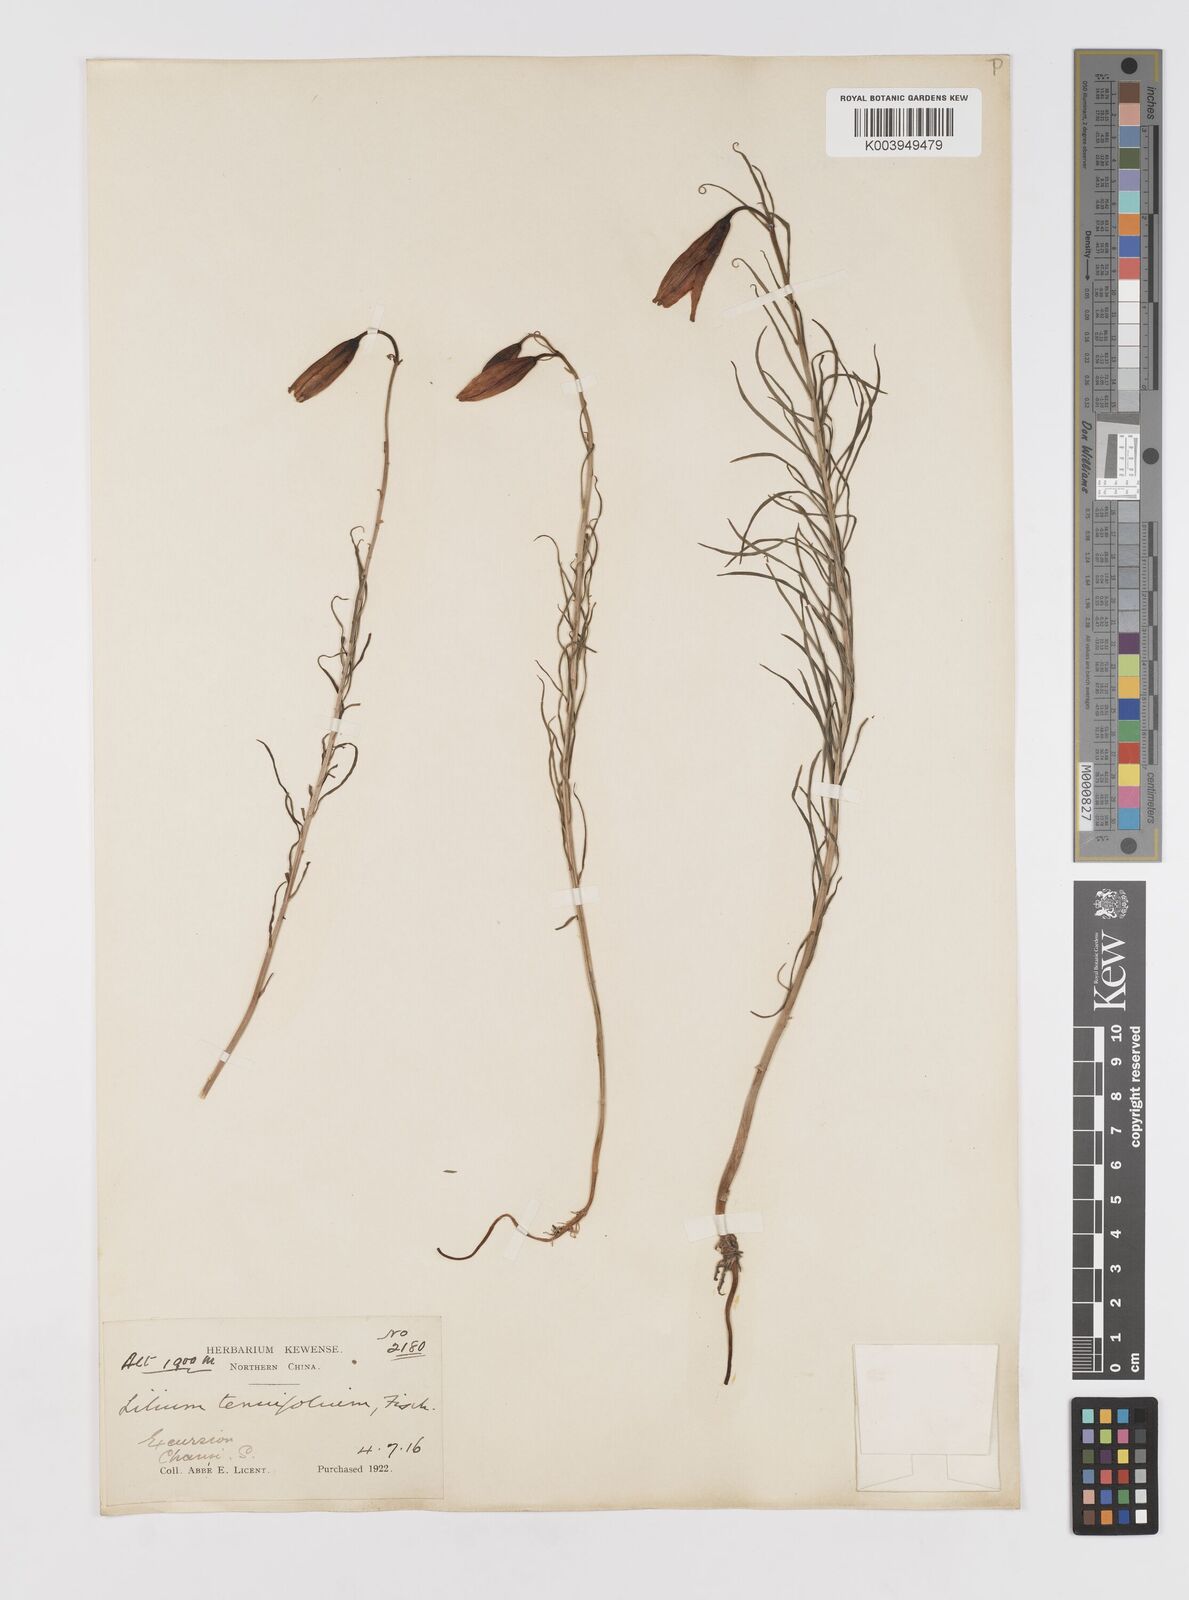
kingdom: Plantae
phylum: Tracheophyta
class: Liliopsida
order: Liliales
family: Liliaceae
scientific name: Liliaceae
